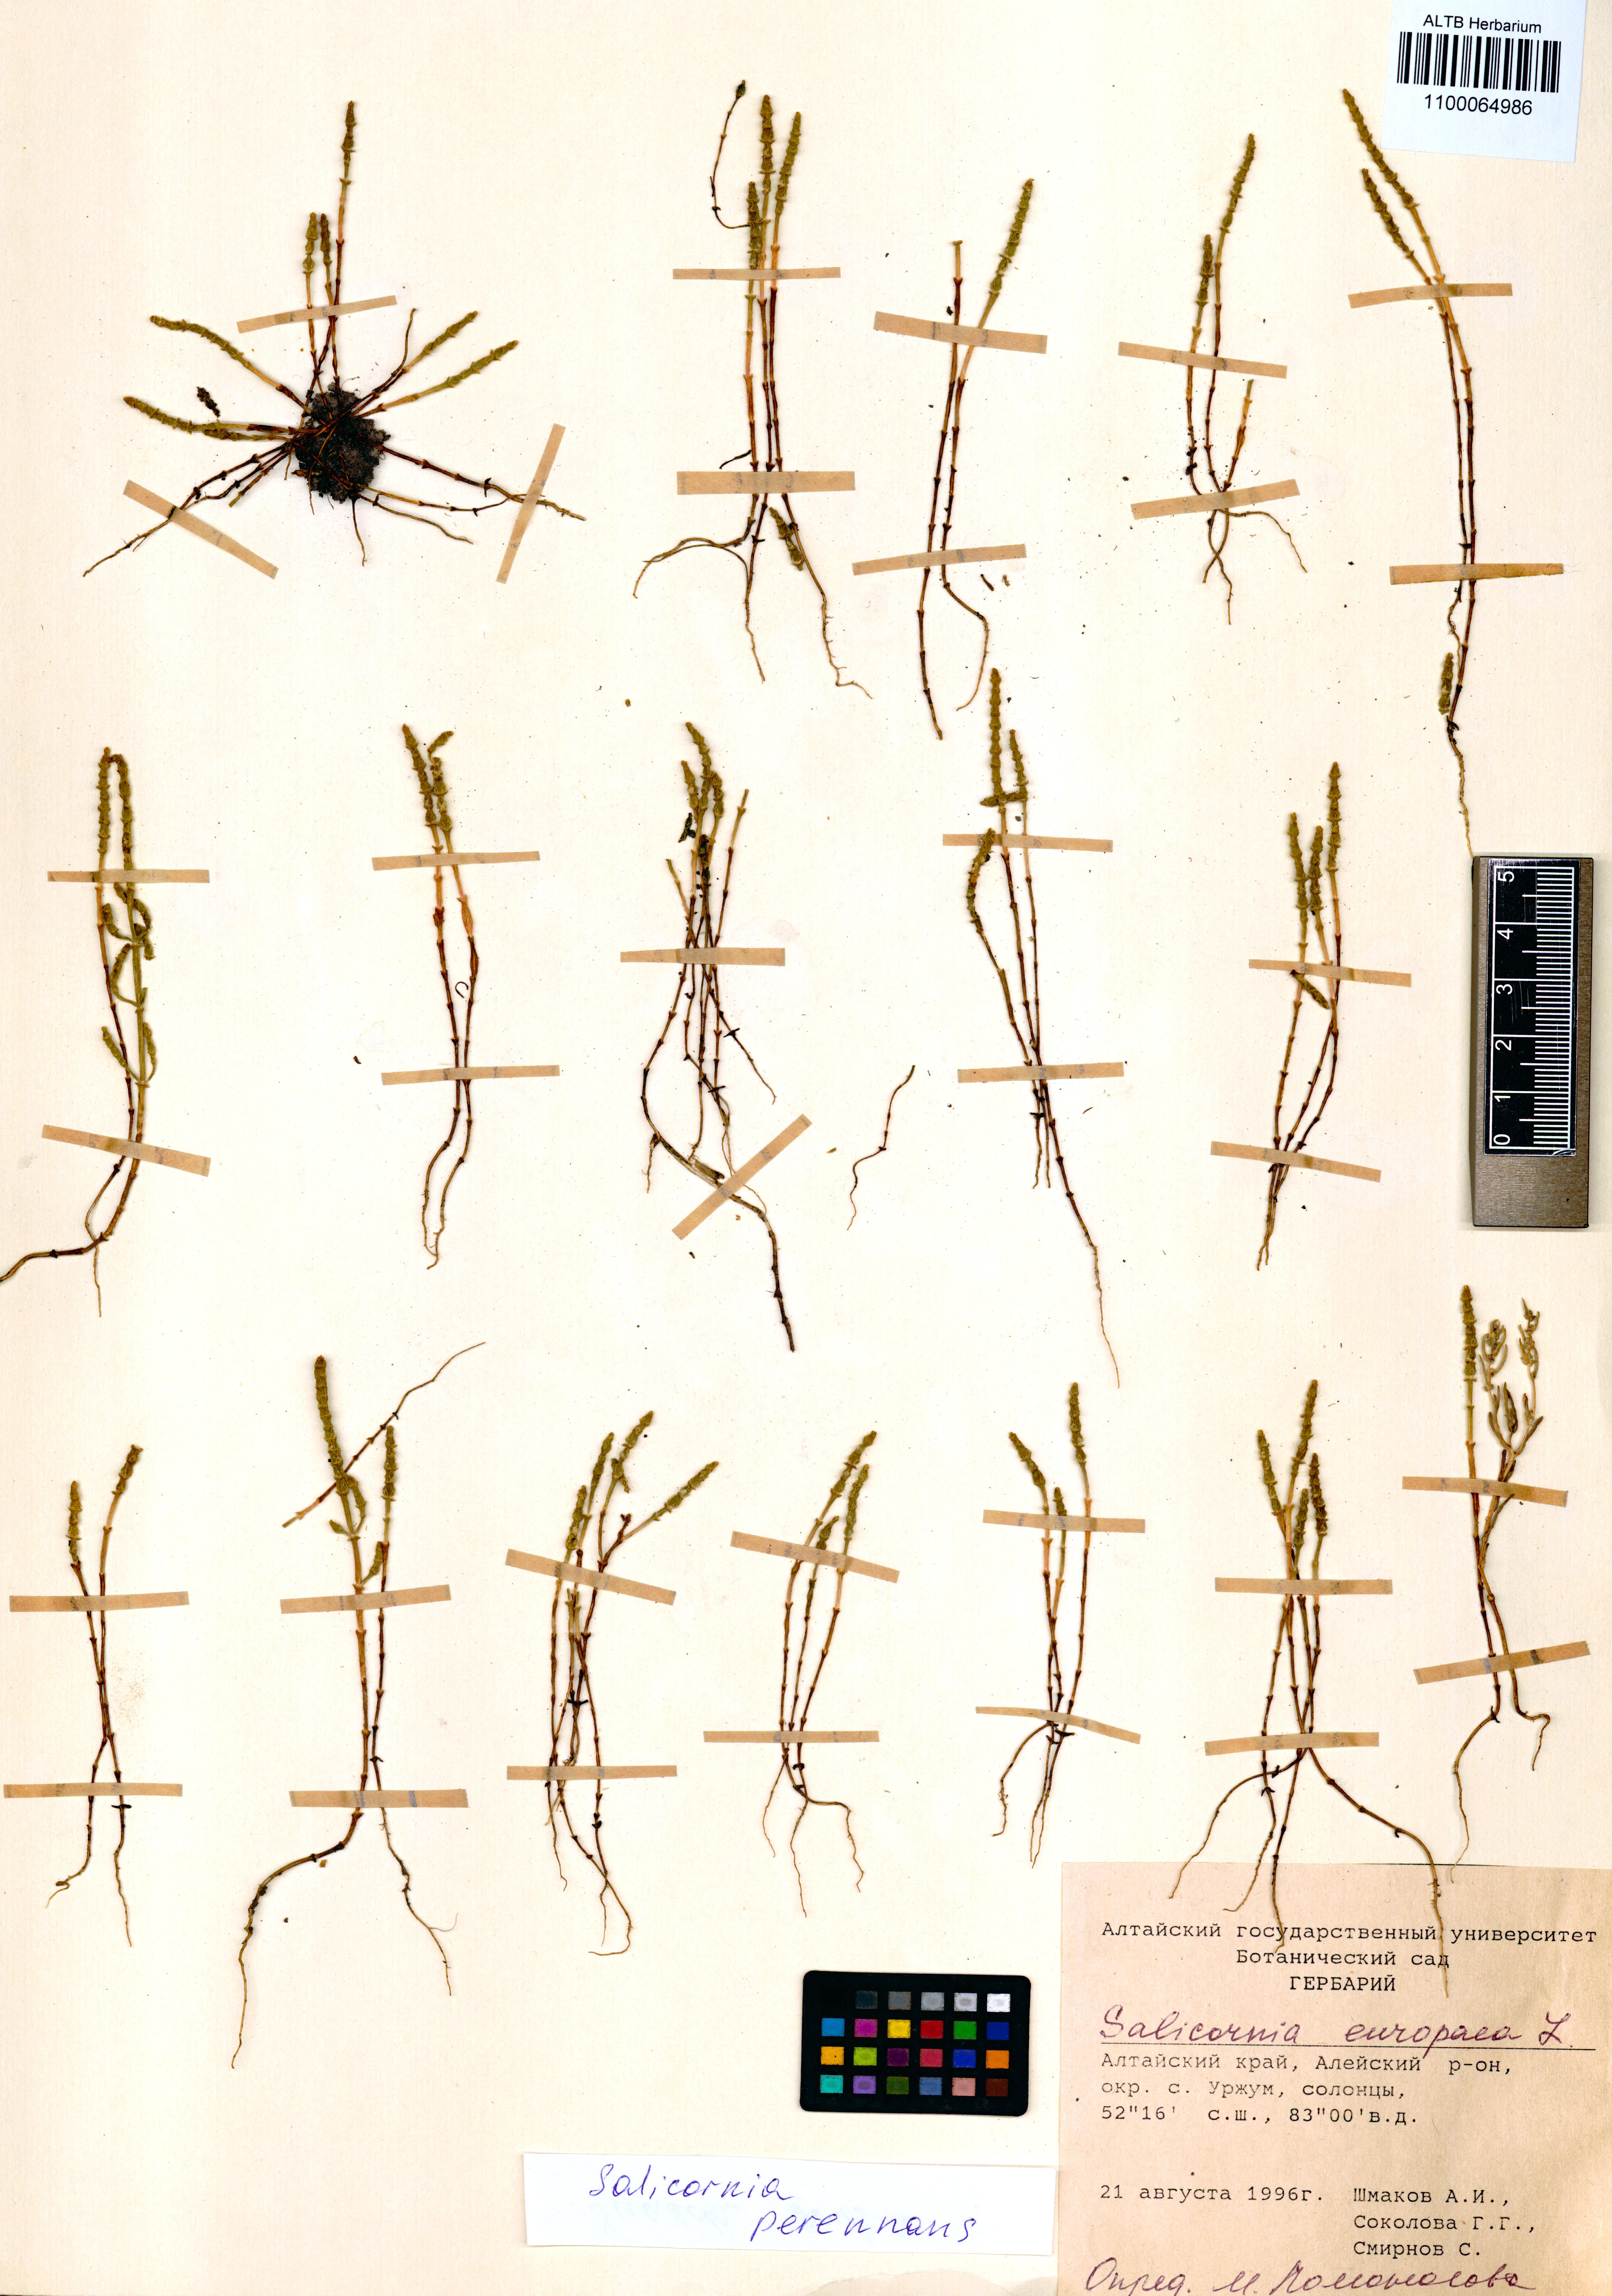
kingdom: Plantae
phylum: Tracheophyta
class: Magnoliopsida
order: Caryophyllales
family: Amaranthaceae
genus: Salicornia
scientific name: Salicornia perennans
